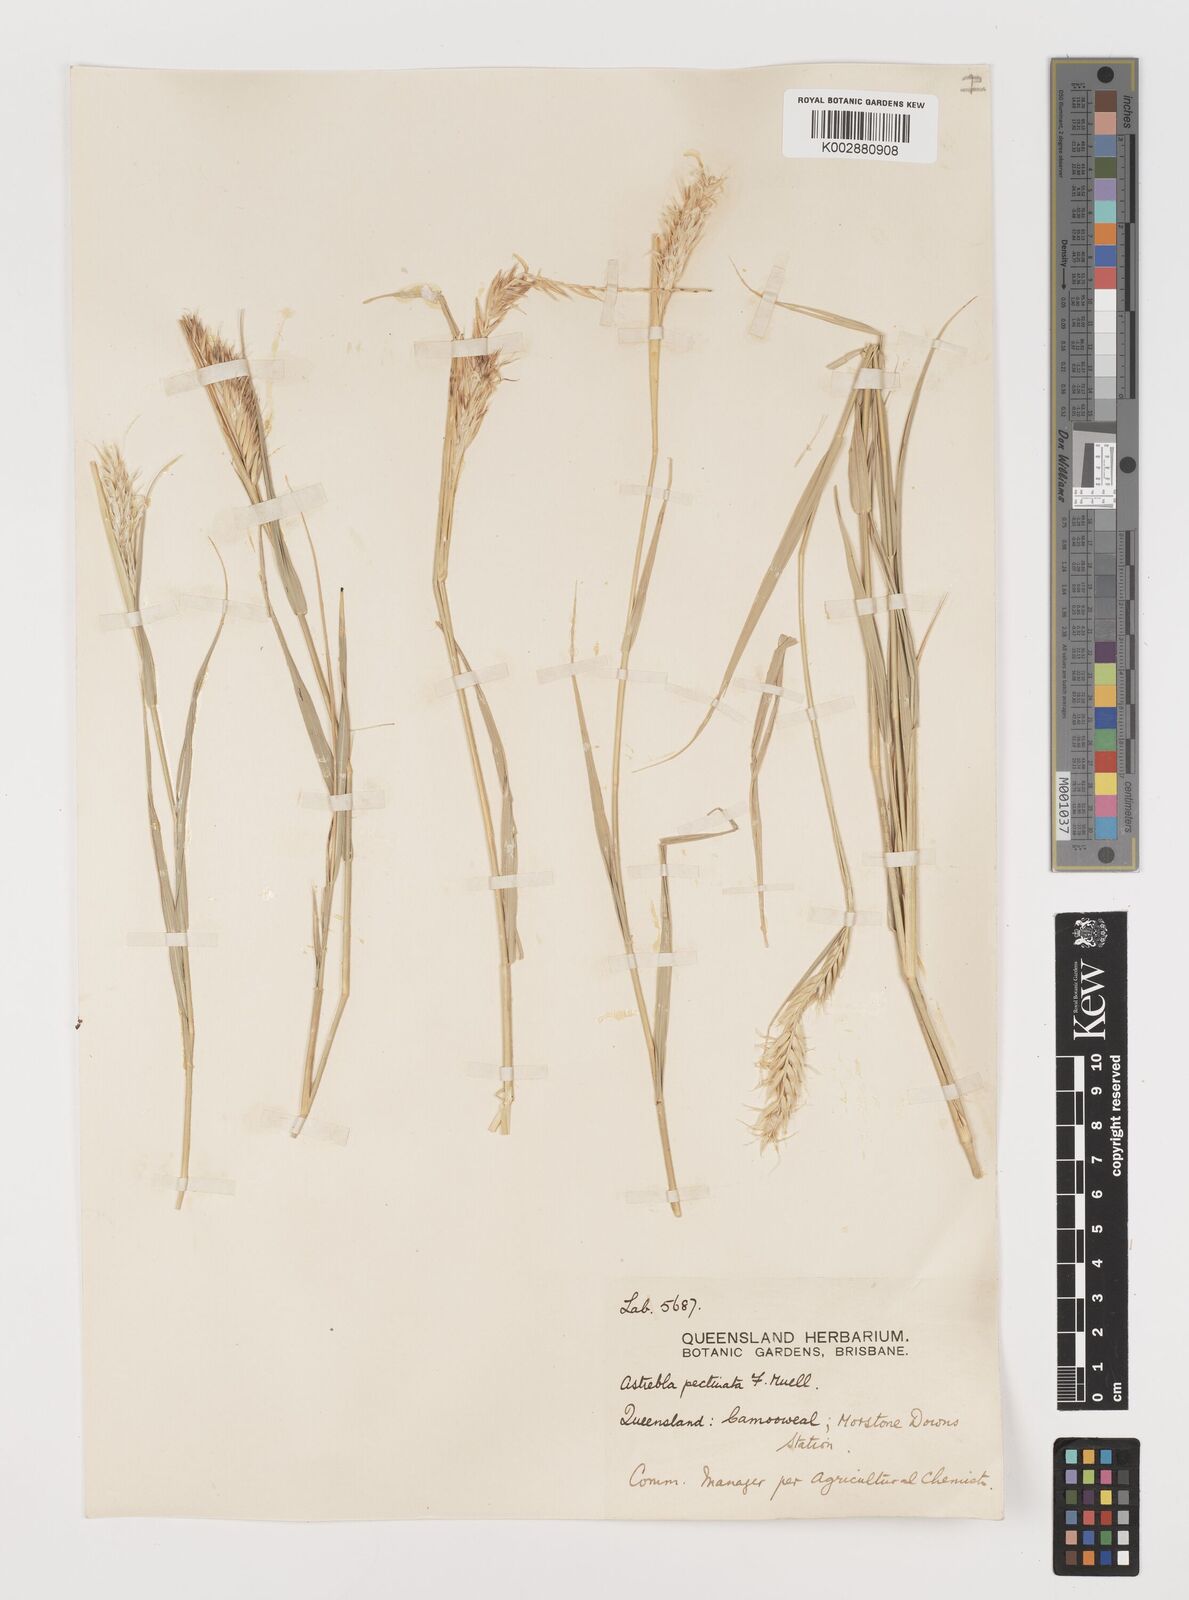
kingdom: Plantae
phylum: Tracheophyta
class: Liliopsida
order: Poales
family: Poaceae
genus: Astrebla
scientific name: Astrebla pectinata
